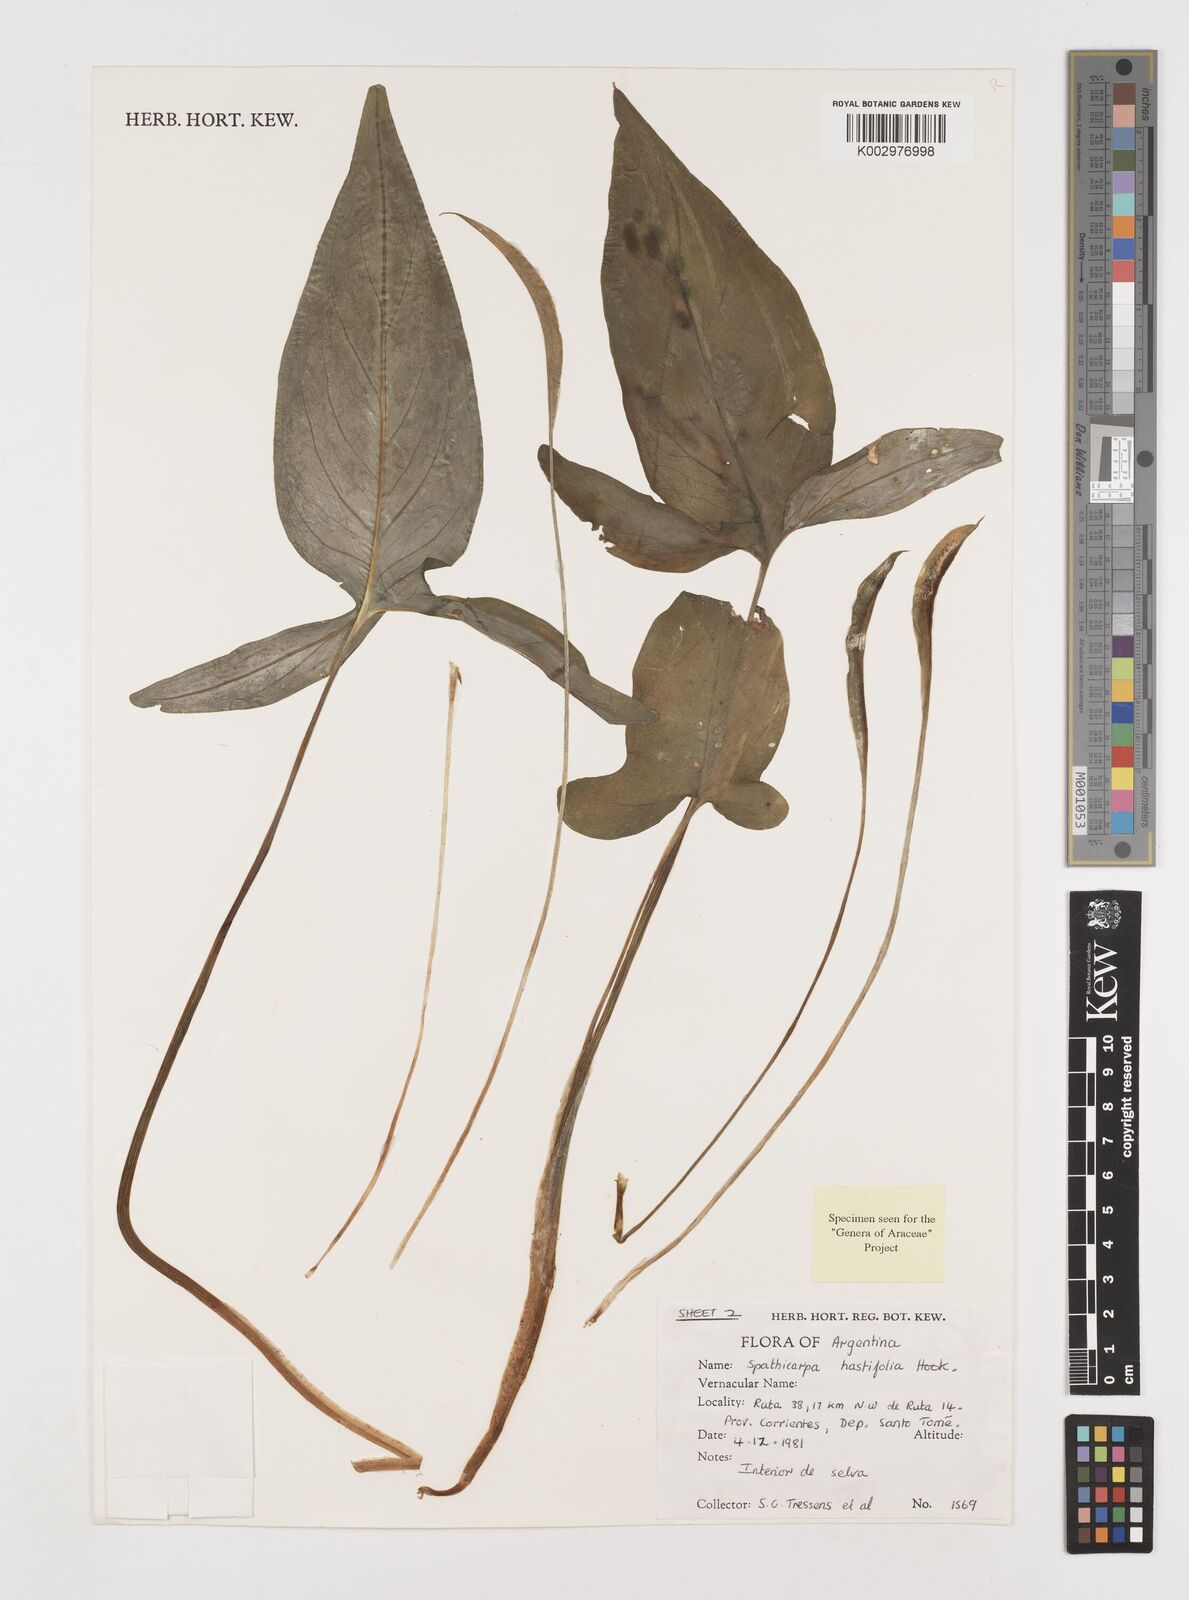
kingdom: Plantae
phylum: Tracheophyta
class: Liliopsida
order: Alismatales
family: Araceae
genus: Spathicarpa
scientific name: Spathicarpa hastifolia
